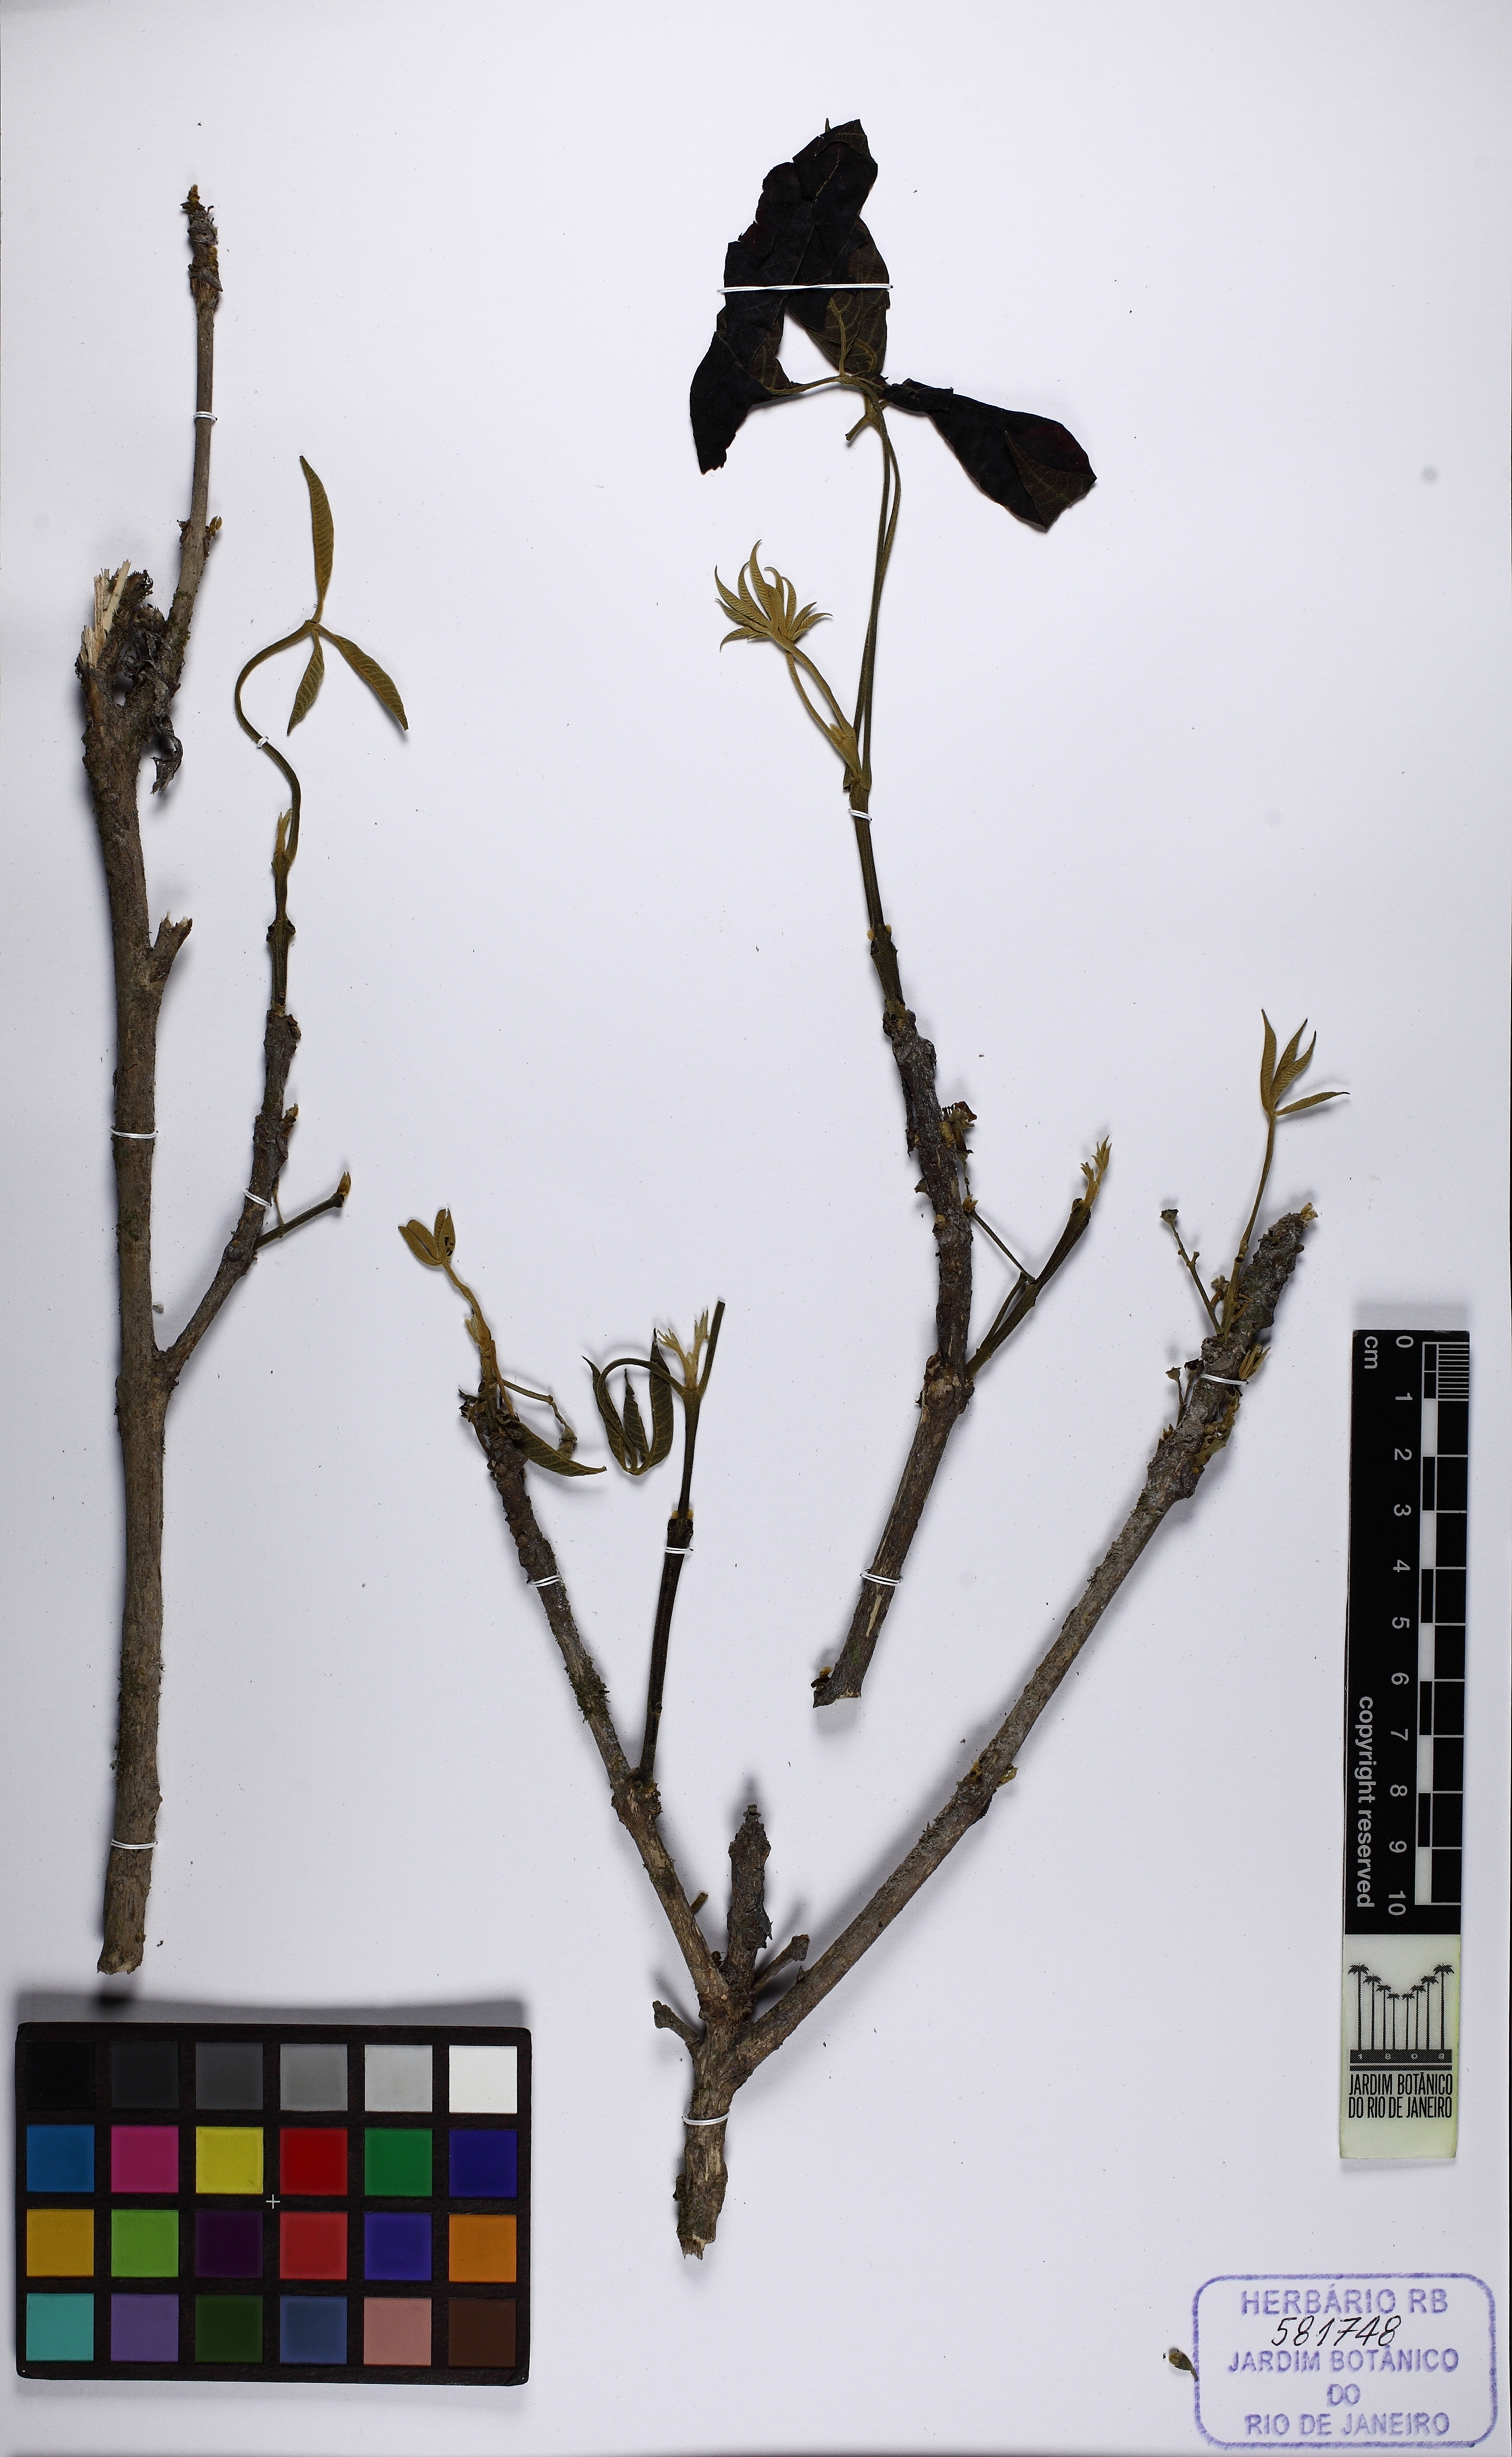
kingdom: Plantae
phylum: Tracheophyta
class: Magnoliopsida
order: Lamiales
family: Lamiaceae
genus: Vitex
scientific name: Vitex
